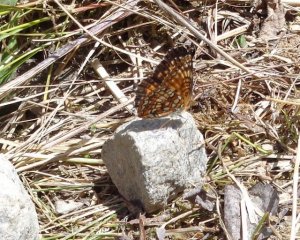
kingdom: Animalia
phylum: Arthropoda
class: Insecta
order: Lepidoptera
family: Nymphalidae
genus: Chlosyne
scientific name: Chlosyne harrisii
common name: Harris's Checkerspot
